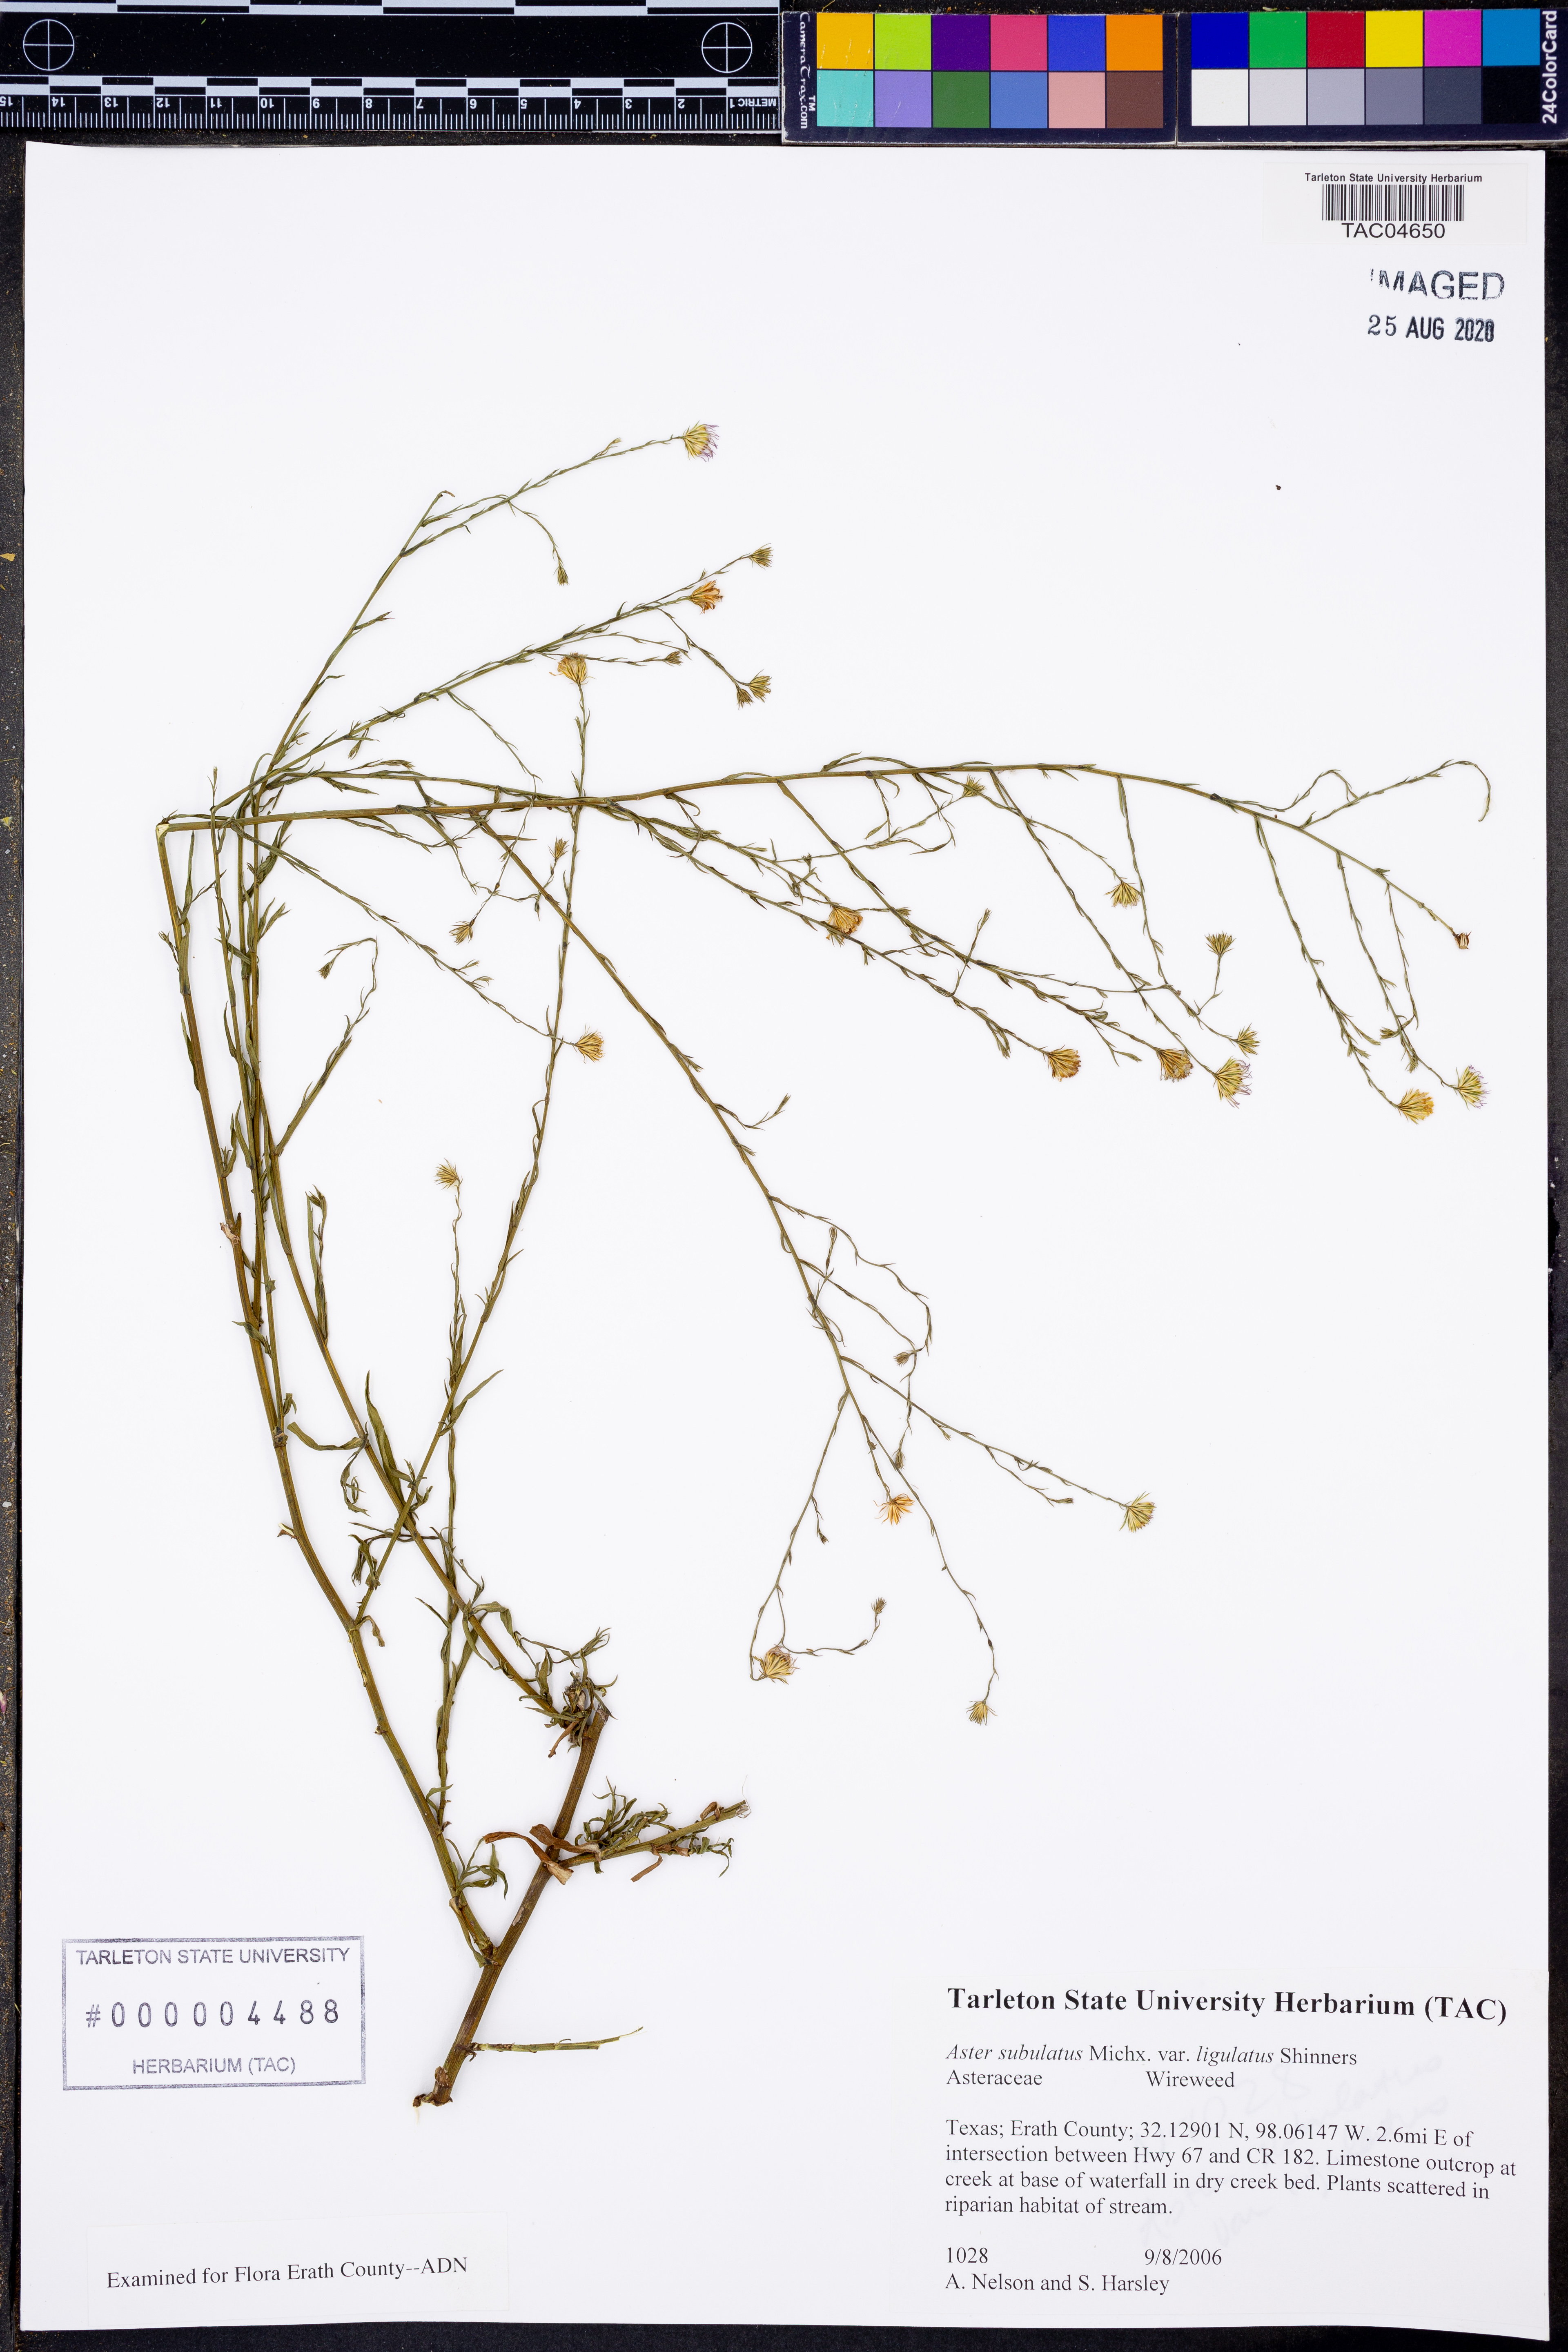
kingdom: Plantae
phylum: Tracheophyta
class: Magnoliopsida
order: Asterales
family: Asteraceae
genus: Symphyotrichum
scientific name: Symphyotrichum divaricatum
